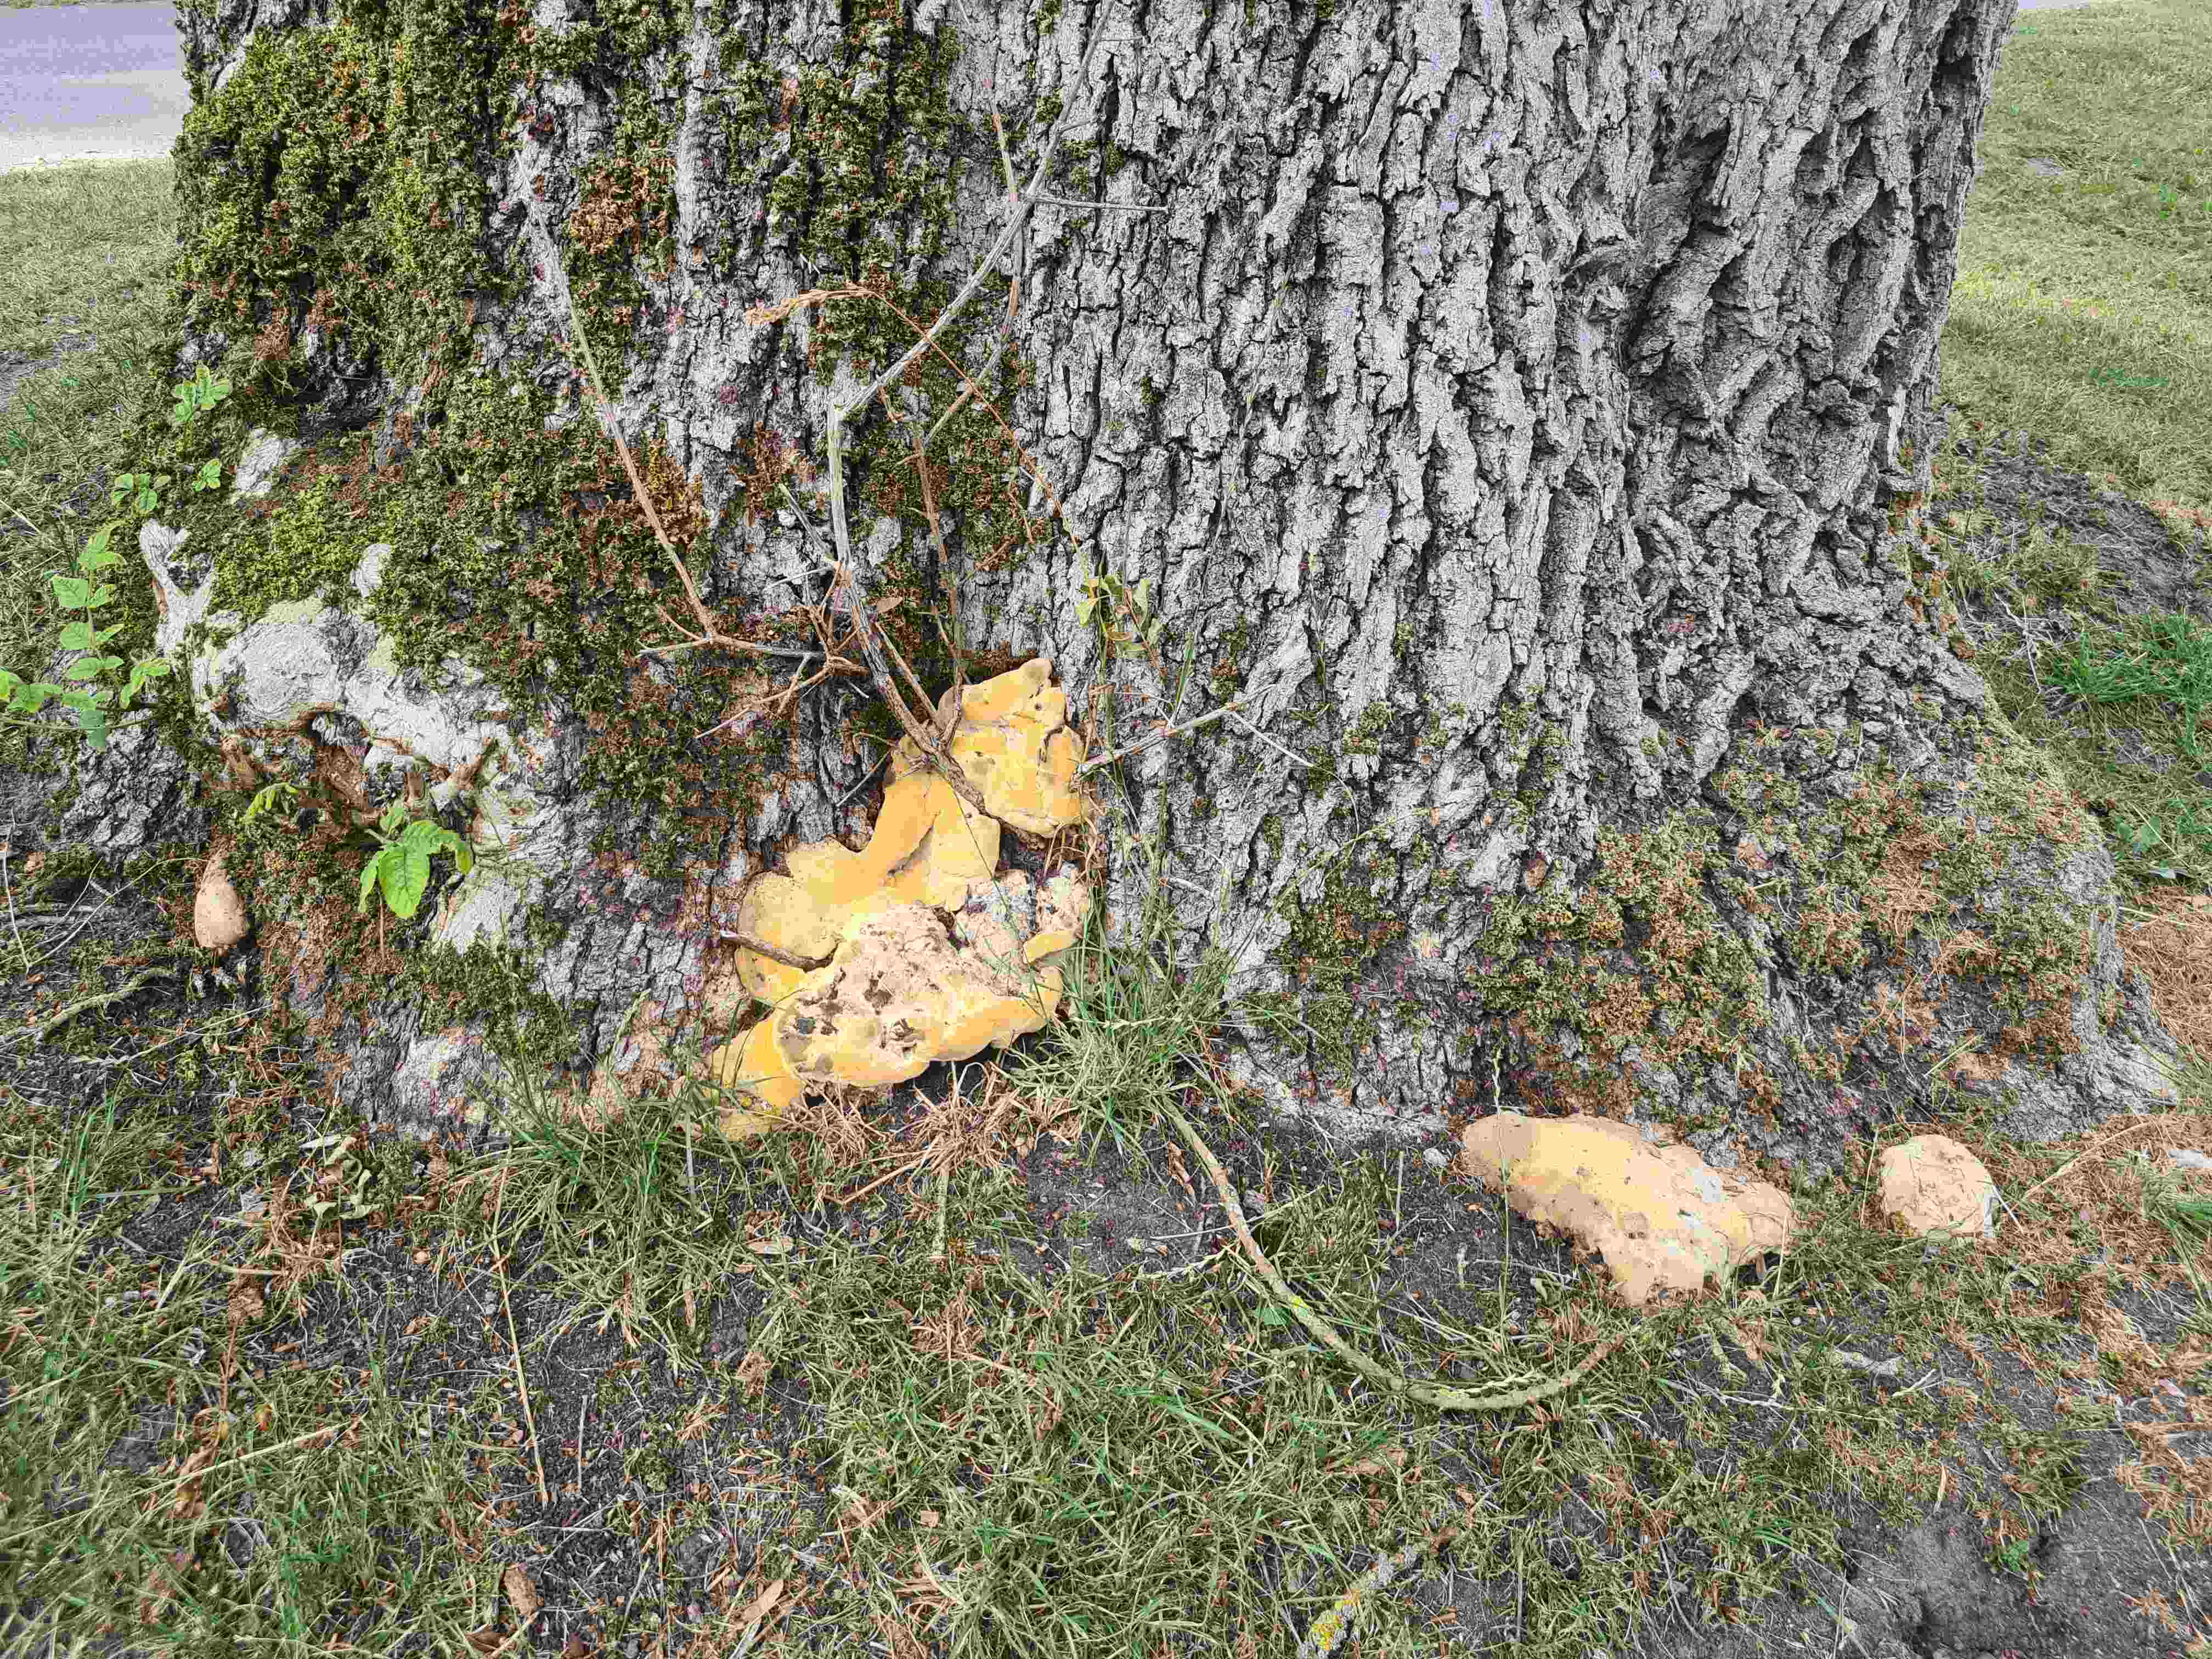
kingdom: Fungi
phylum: Basidiomycota
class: Agaricomycetes
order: Polyporales
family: Polyporaceae
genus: Vanderbylia
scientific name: Vanderbylia fraxinea
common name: stor kanelporesvamp
